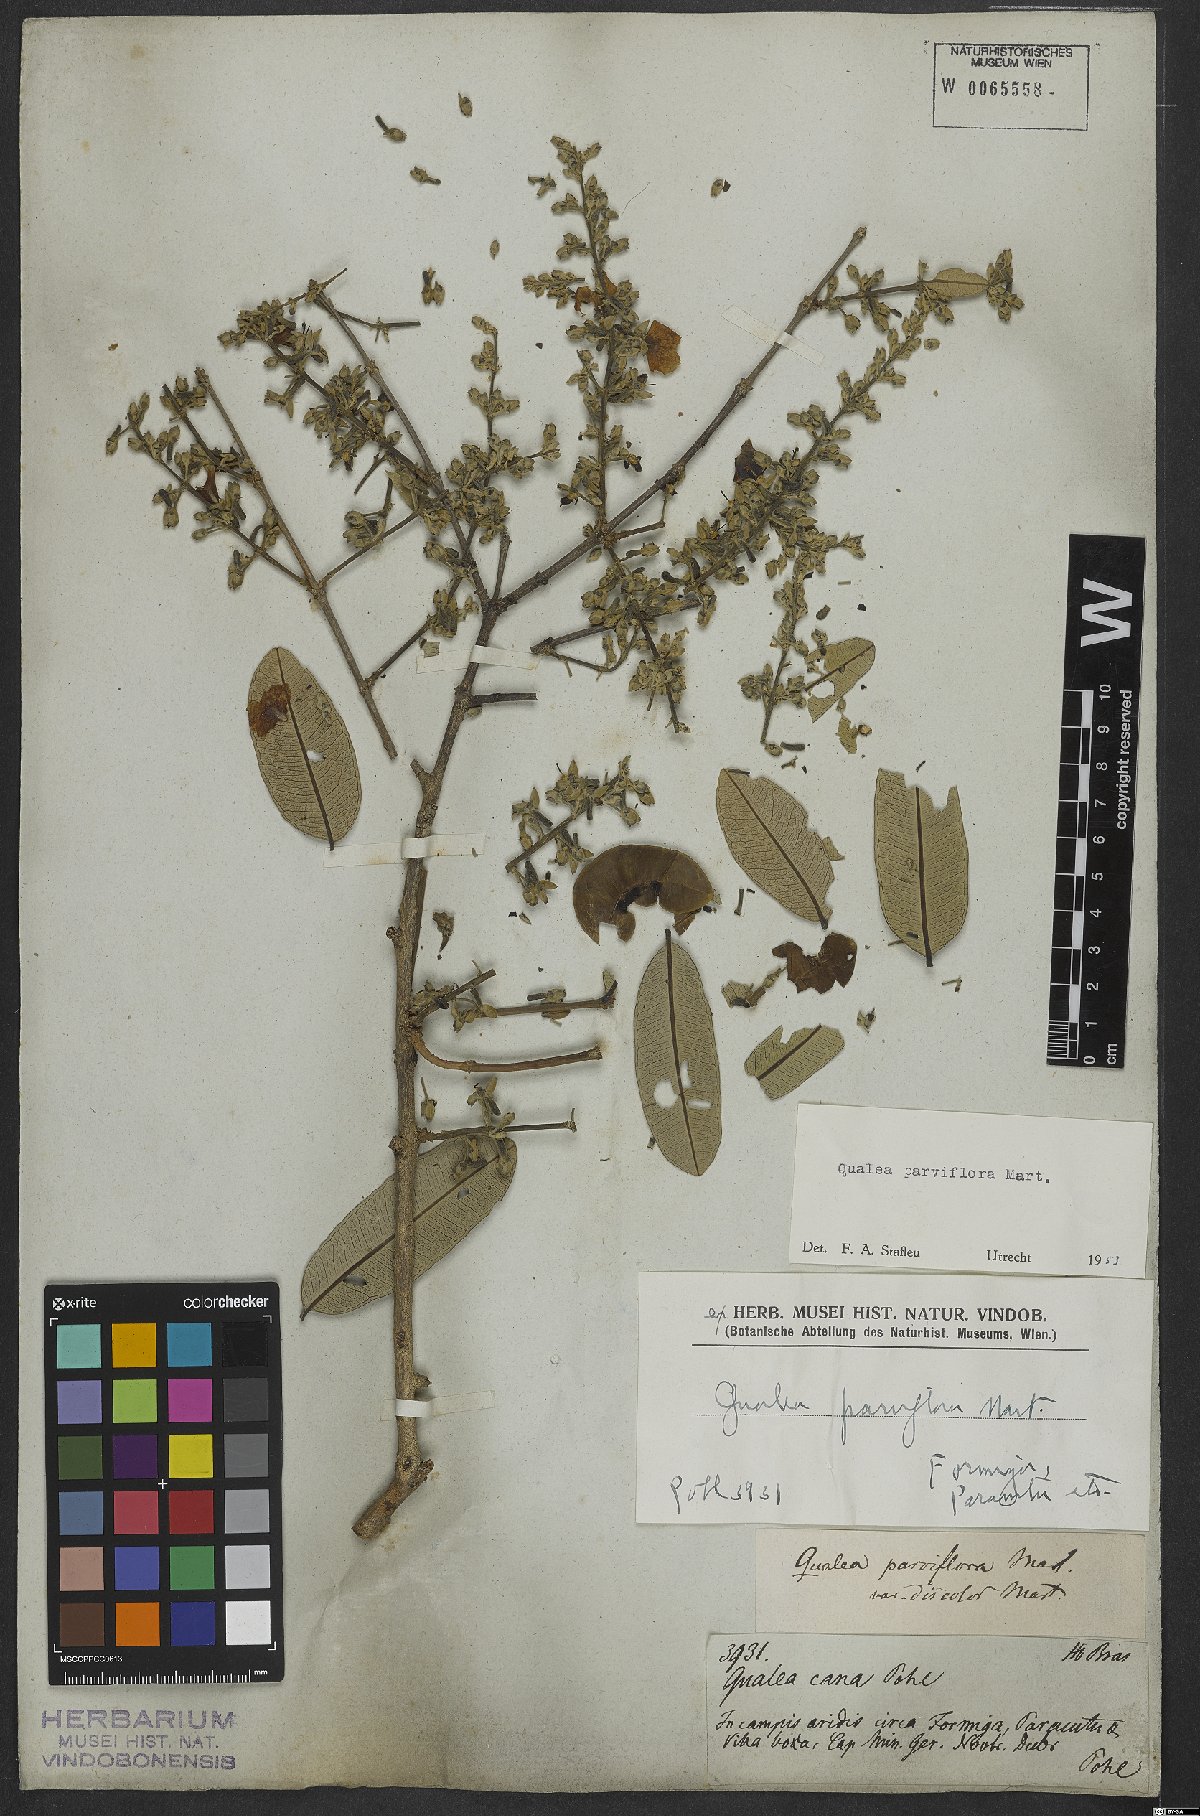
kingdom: Plantae
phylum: Tracheophyta
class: Magnoliopsida
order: Myrtales
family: Vochysiaceae
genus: Qualea
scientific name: Qualea parviflora
